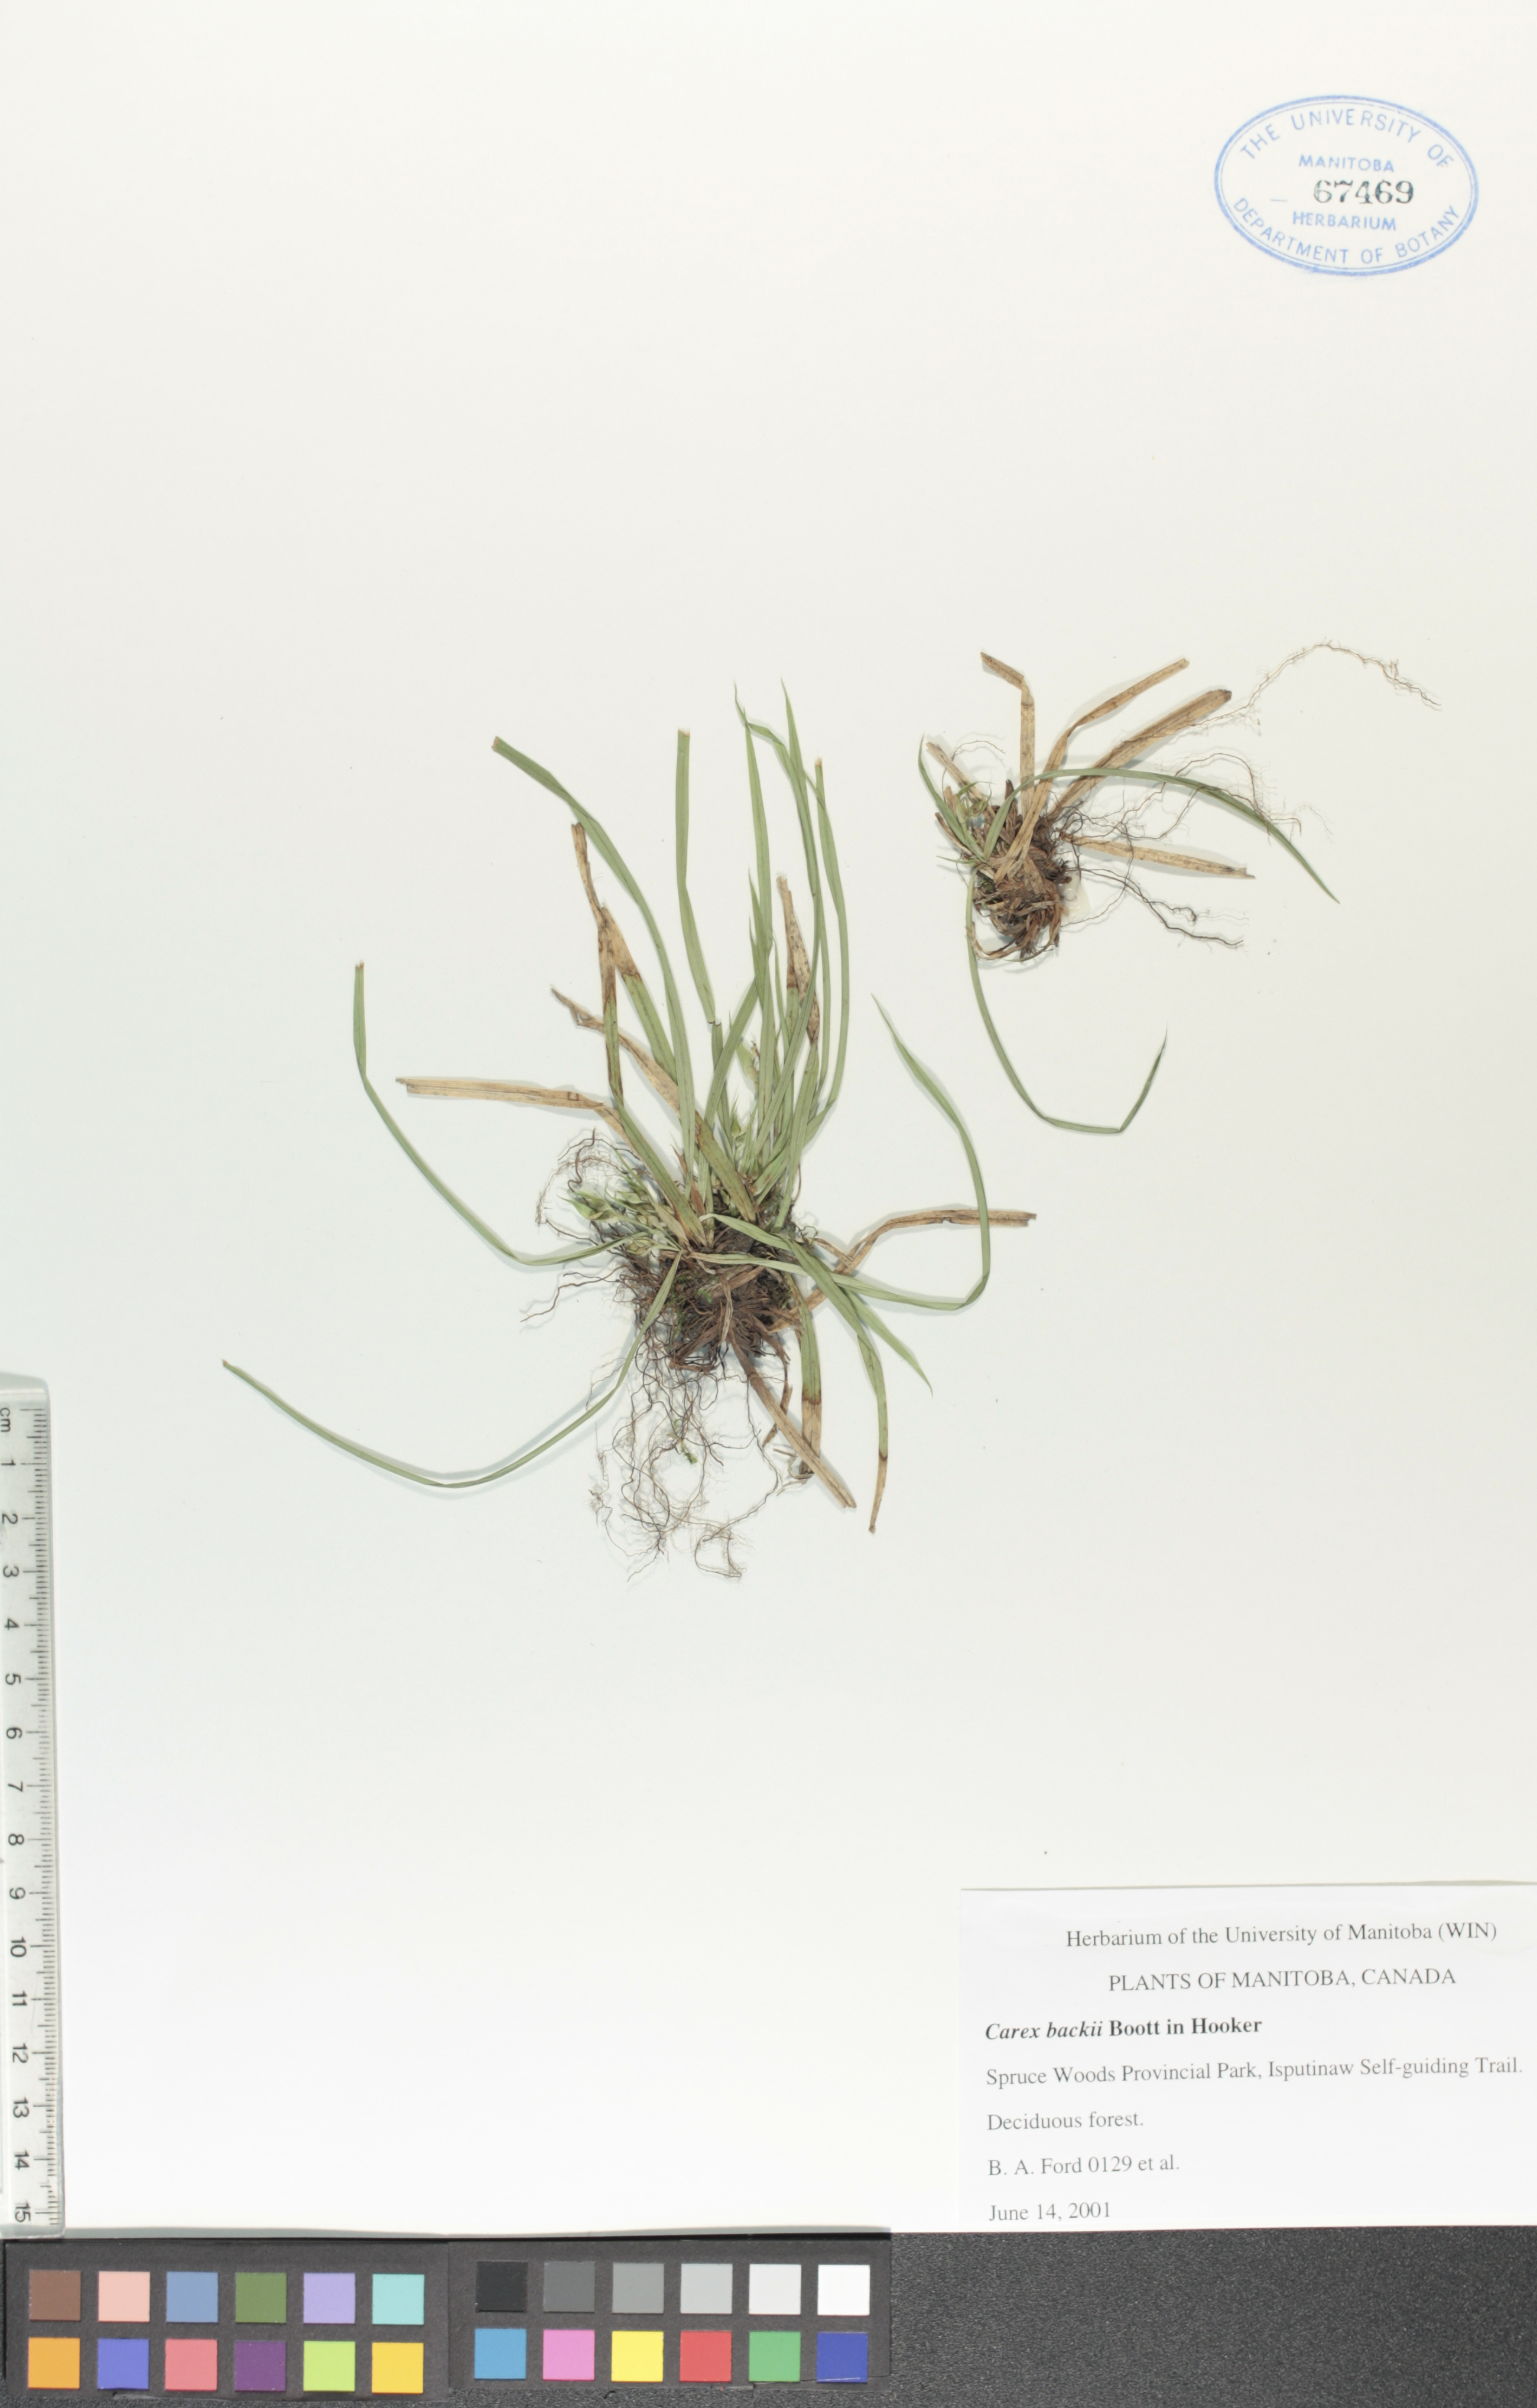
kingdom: Plantae
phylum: Tracheophyta
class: Liliopsida
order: Poales
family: Cyperaceae
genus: Carex
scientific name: Carex backii
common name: Back's sedge
